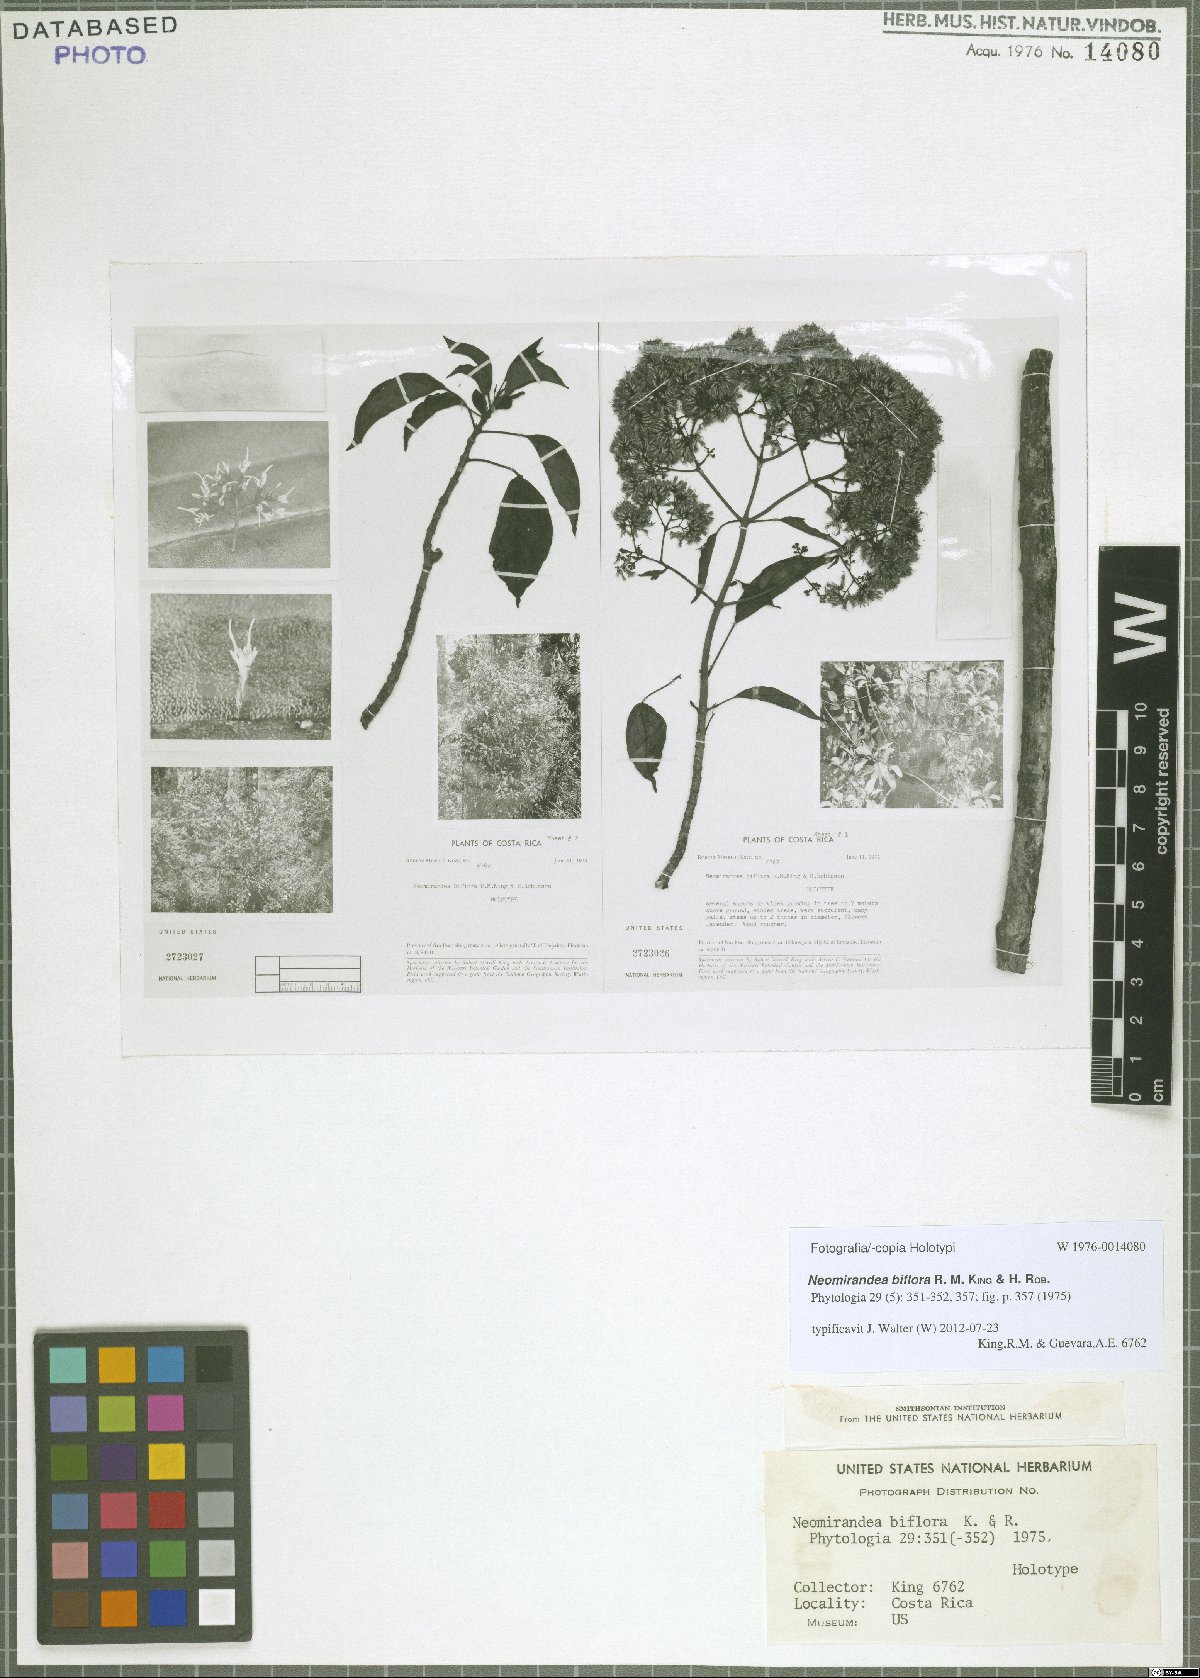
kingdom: Plantae
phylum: Tracheophyta
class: Magnoliopsida
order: Asterales
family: Asteraceae
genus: Neomirandea
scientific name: Neomirandea biflora
